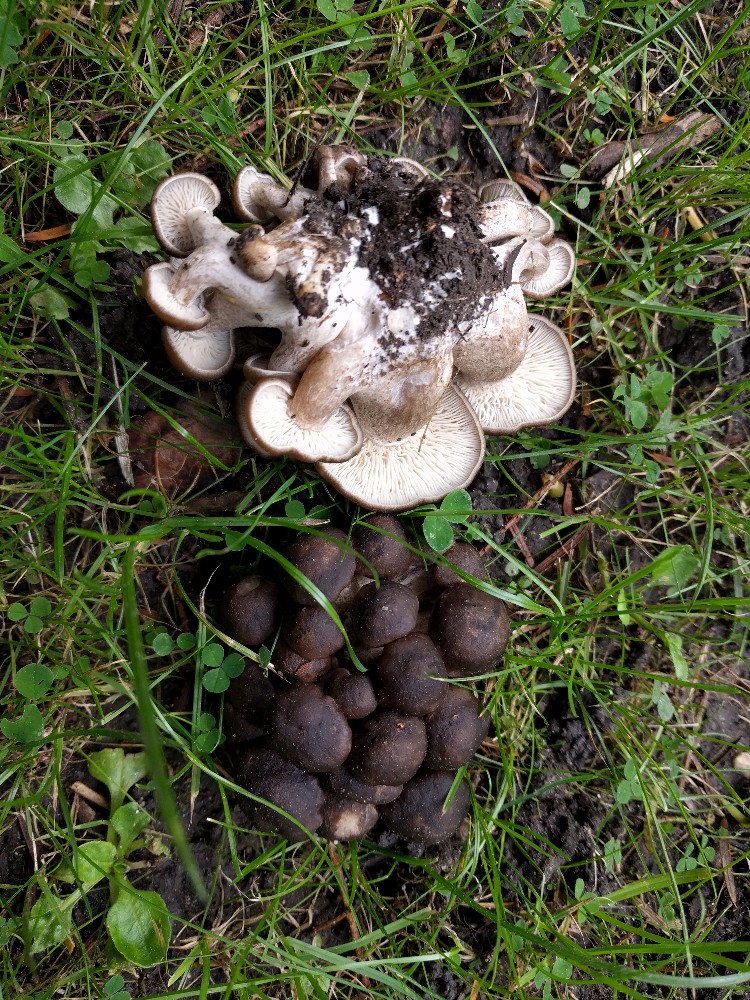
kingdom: Fungi
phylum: Basidiomycota
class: Agaricomycetes
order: Agaricales
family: Lyophyllaceae
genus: Lyophyllum
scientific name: Lyophyllum decastes
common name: Clustered domecap
